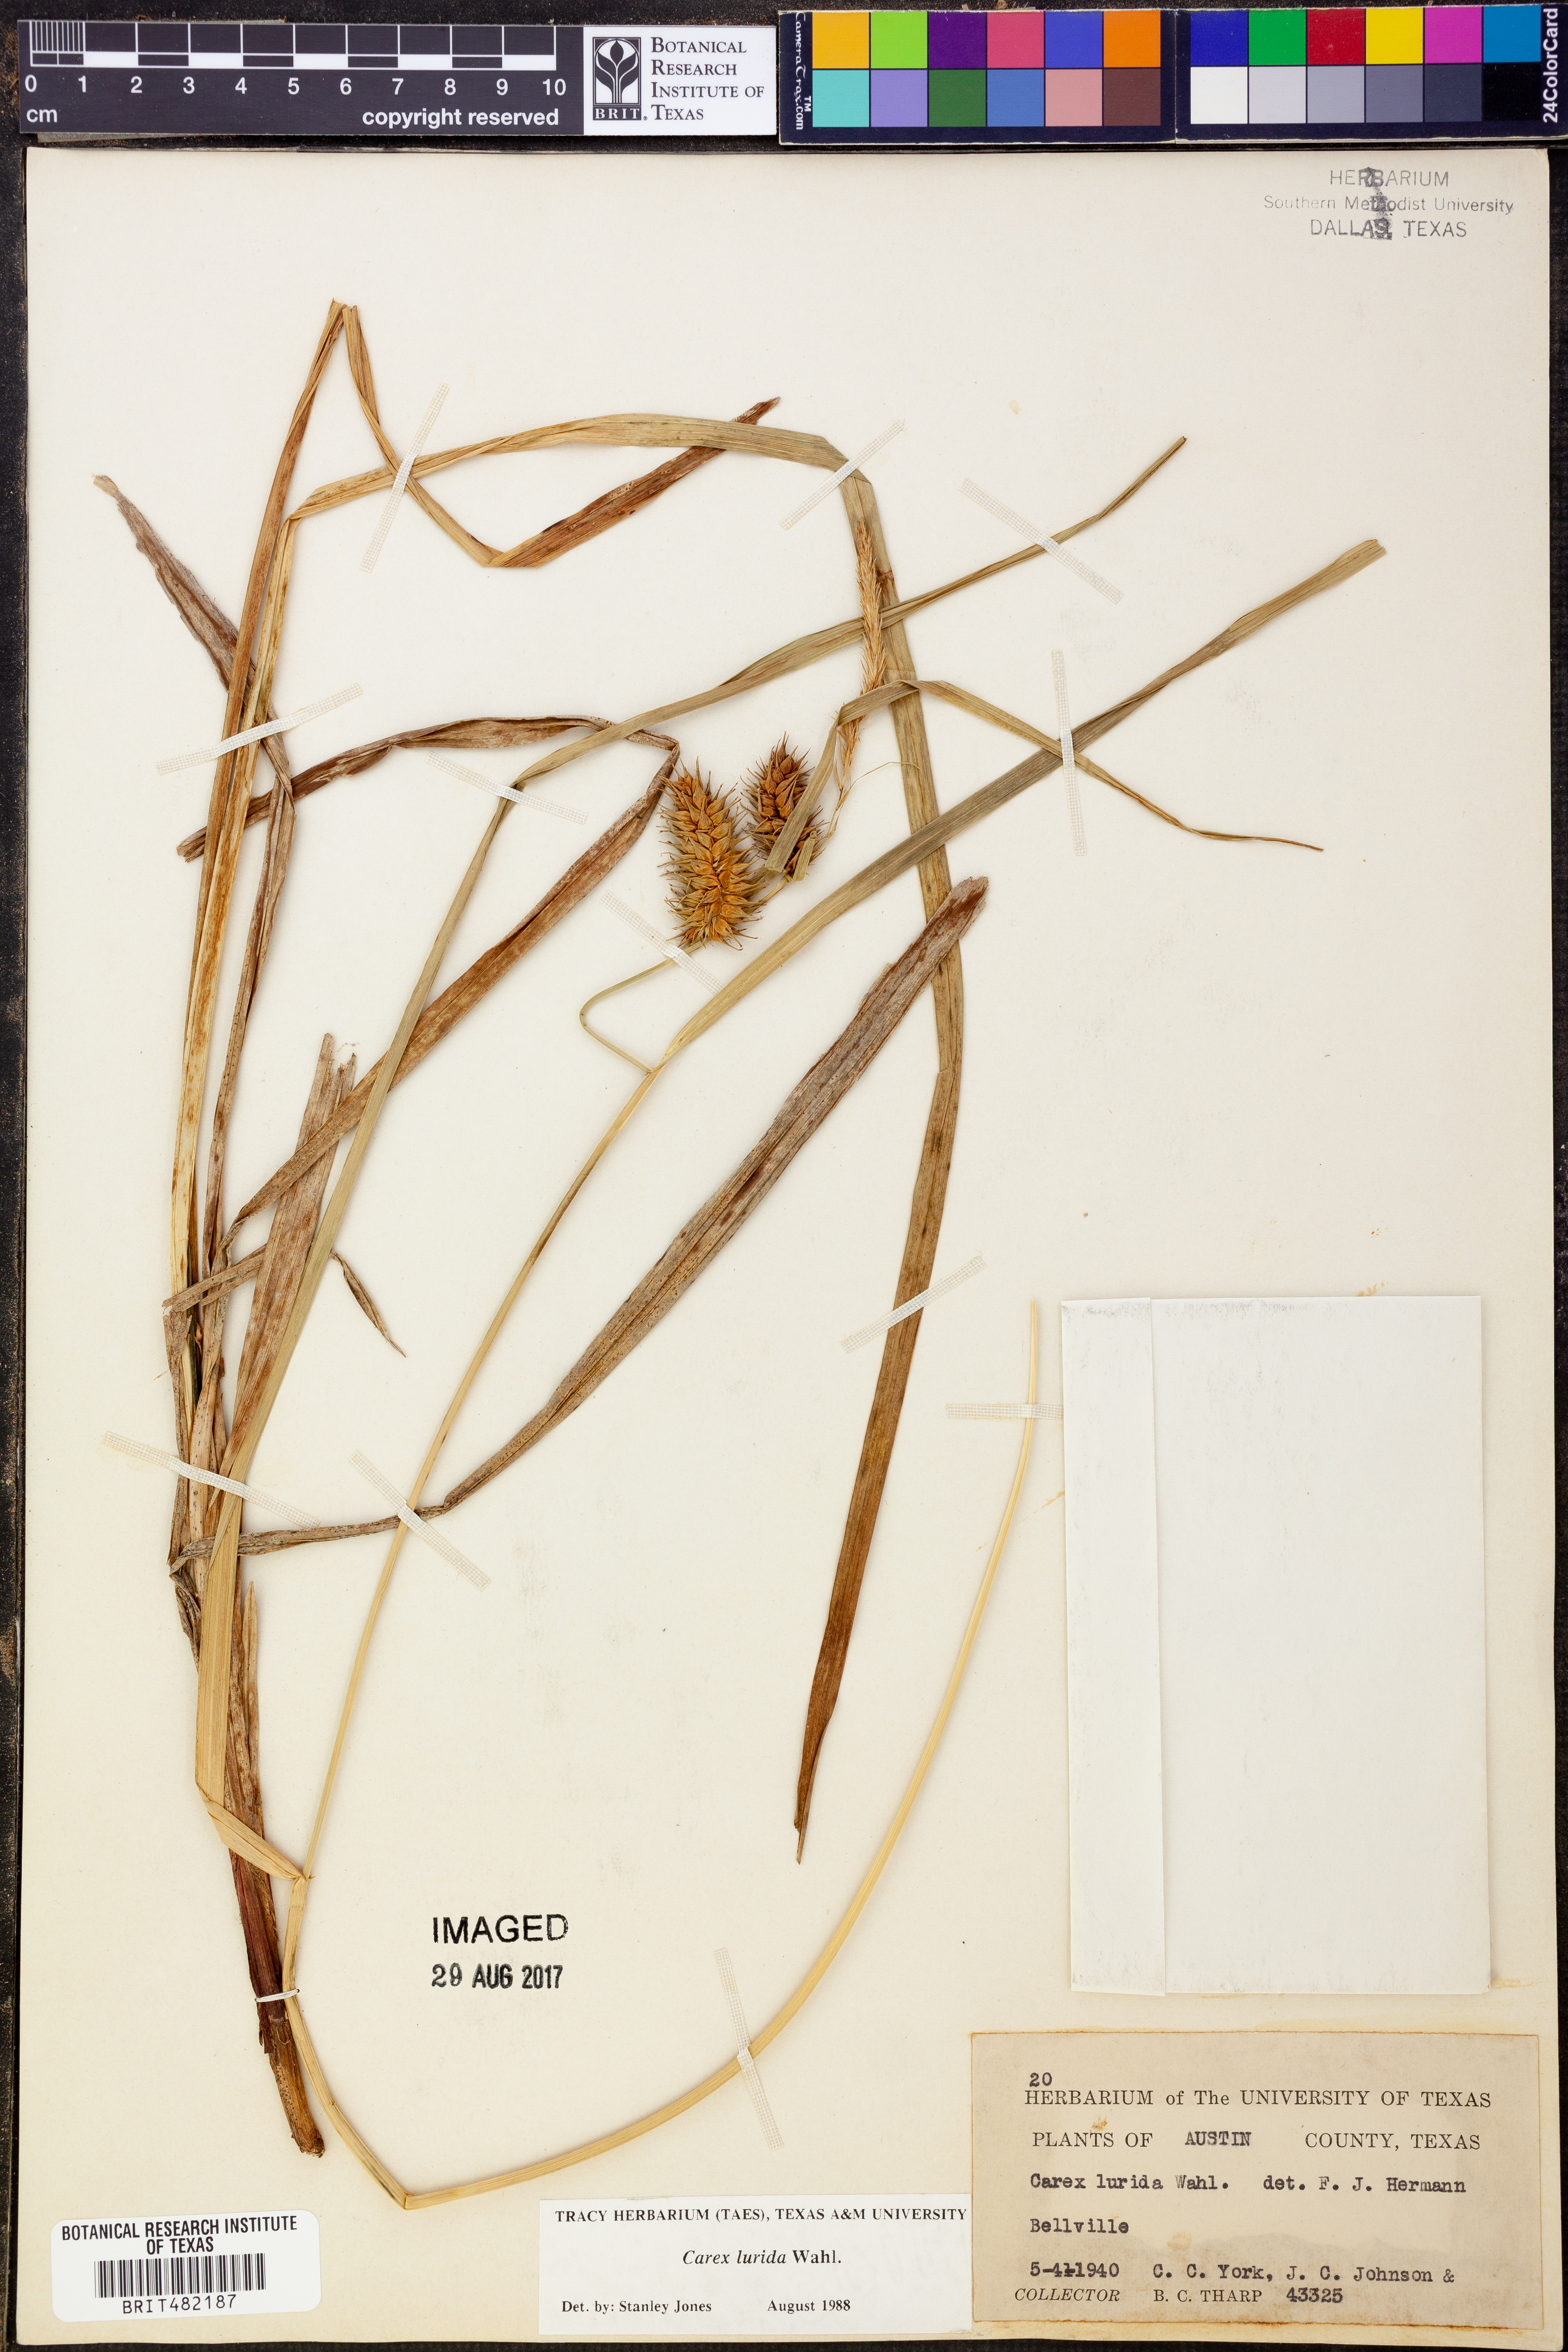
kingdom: Plantae
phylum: Tracheophyta
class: Liliopsida
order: Poales
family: Cyperaceae
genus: Carex
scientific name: Carex lurida
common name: Sallow sedge
